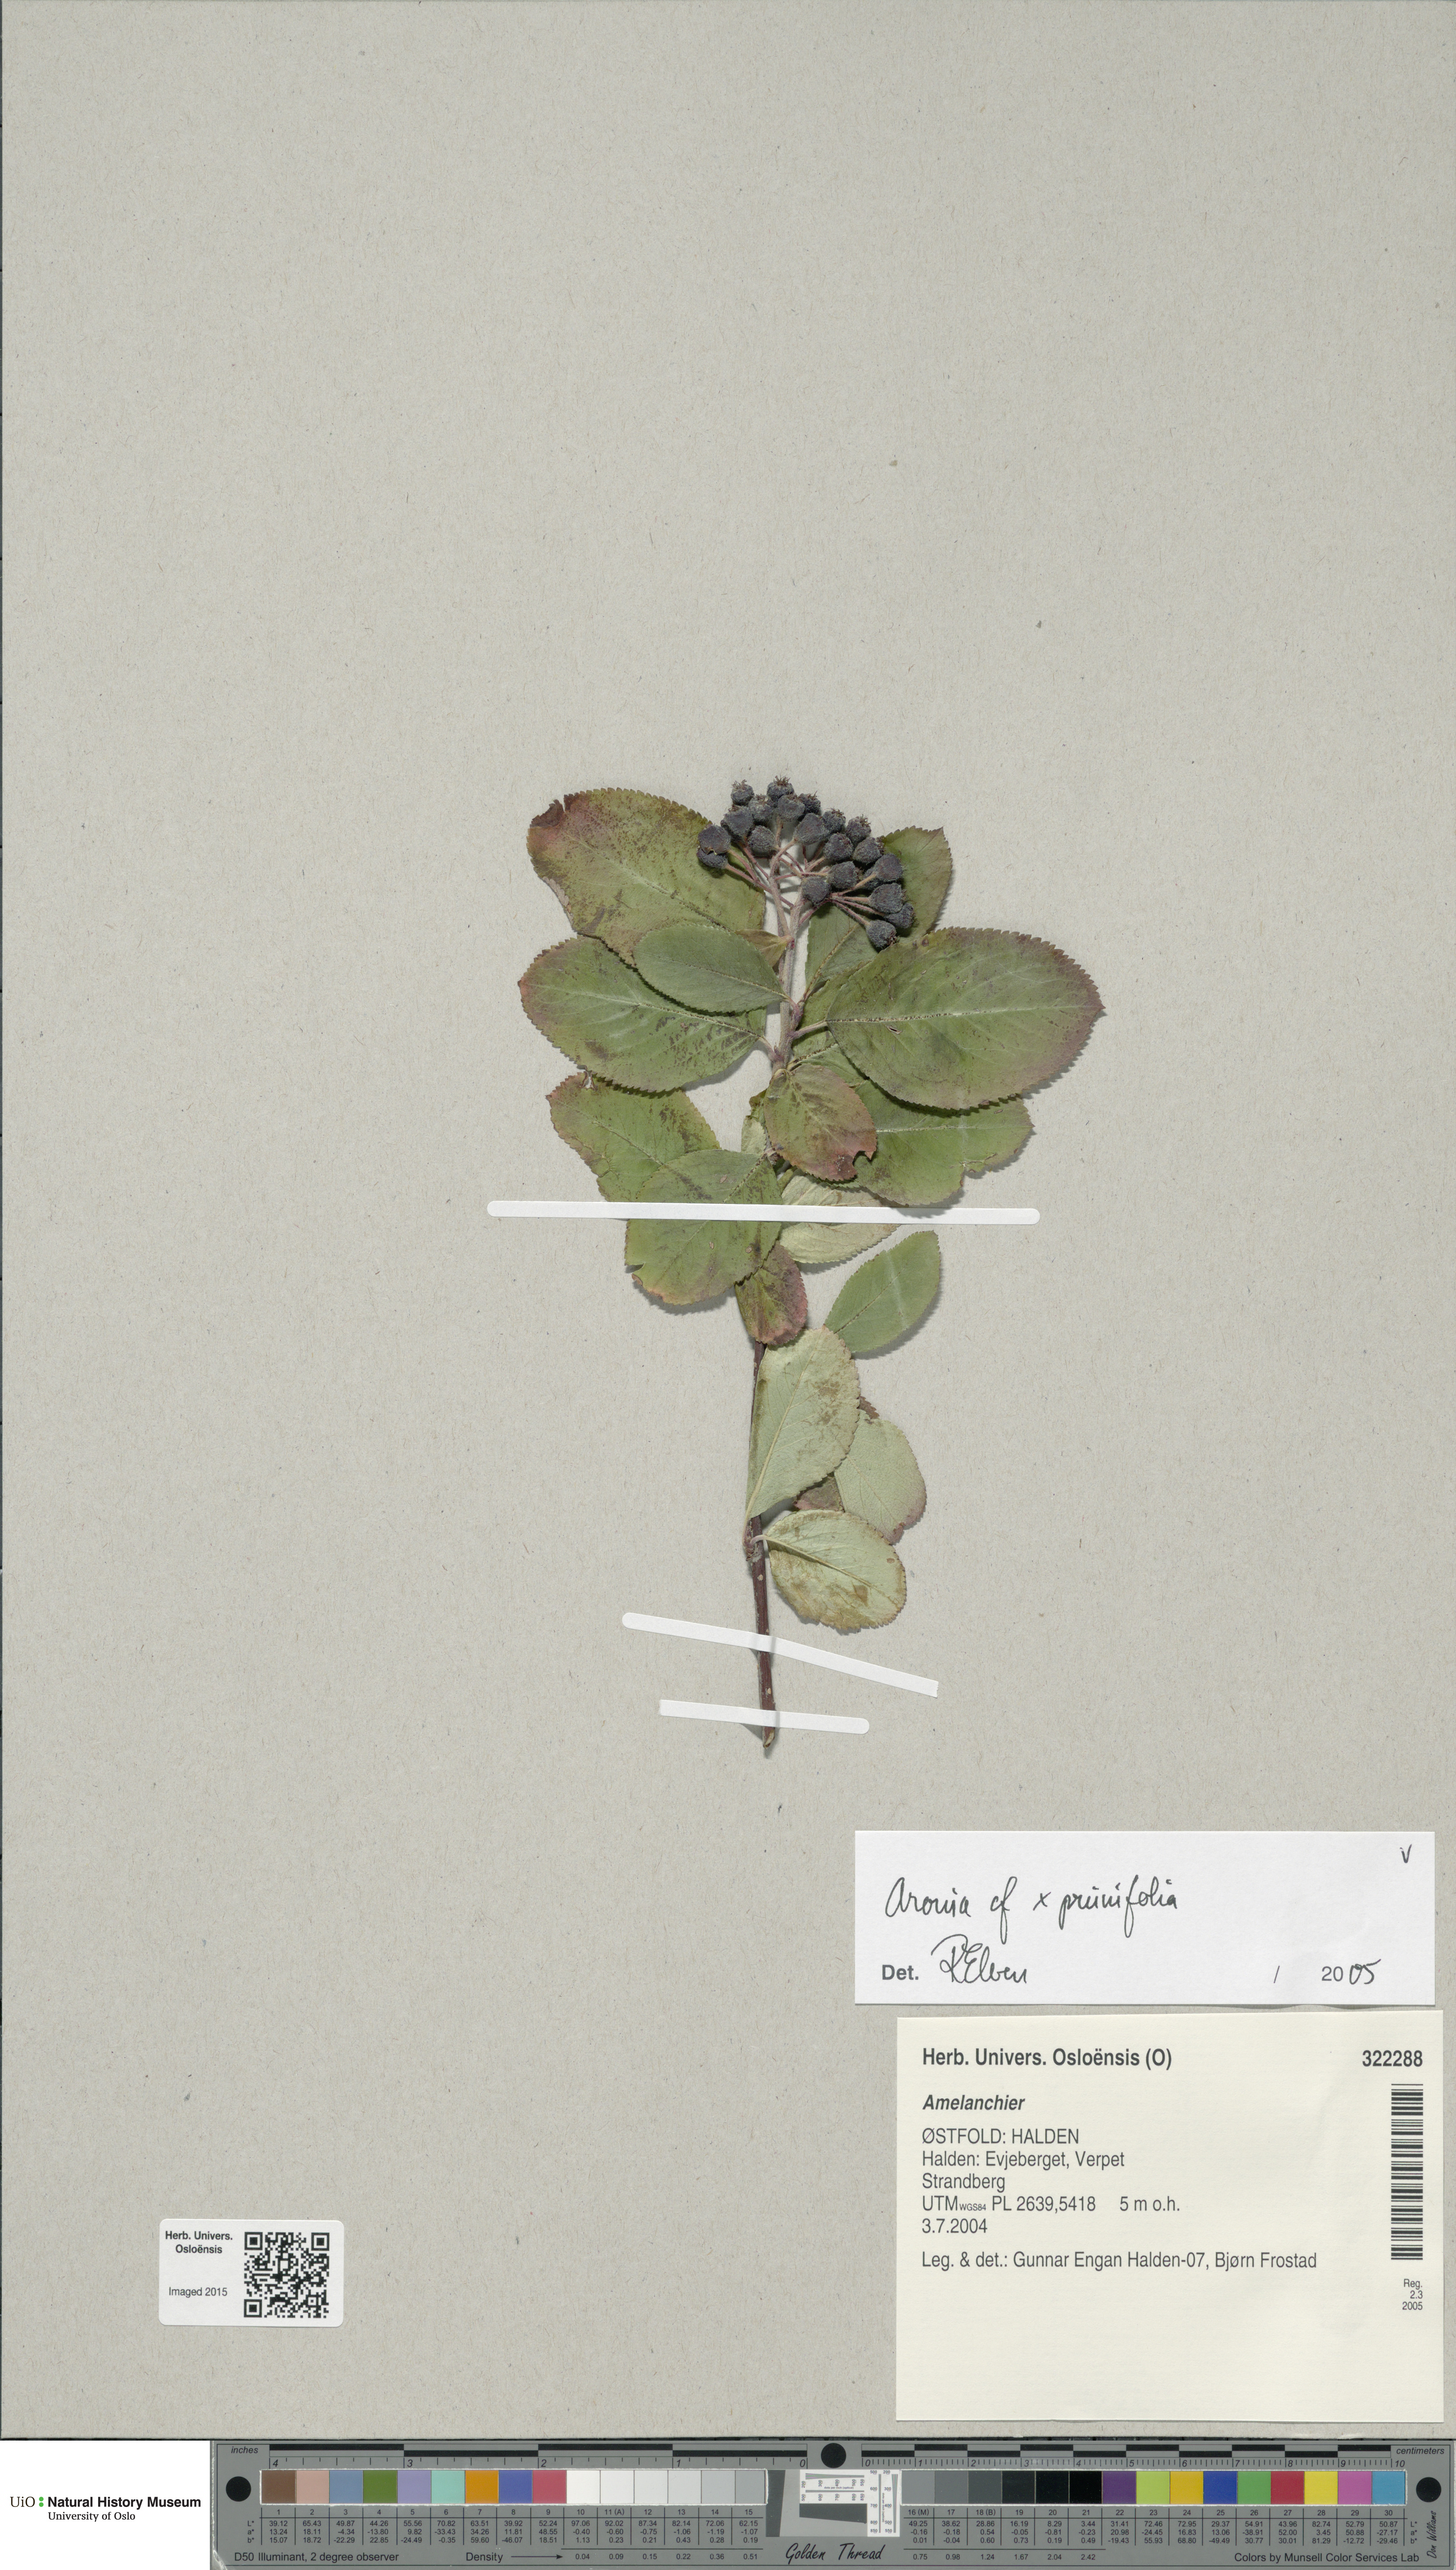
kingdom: Plantae
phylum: Tracheophyta
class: Magnoliopsida
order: Rosales
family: Rosaceae
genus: Sorbaronia
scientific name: Sorbaronia arsenii
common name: Arsène's mountain-ash
